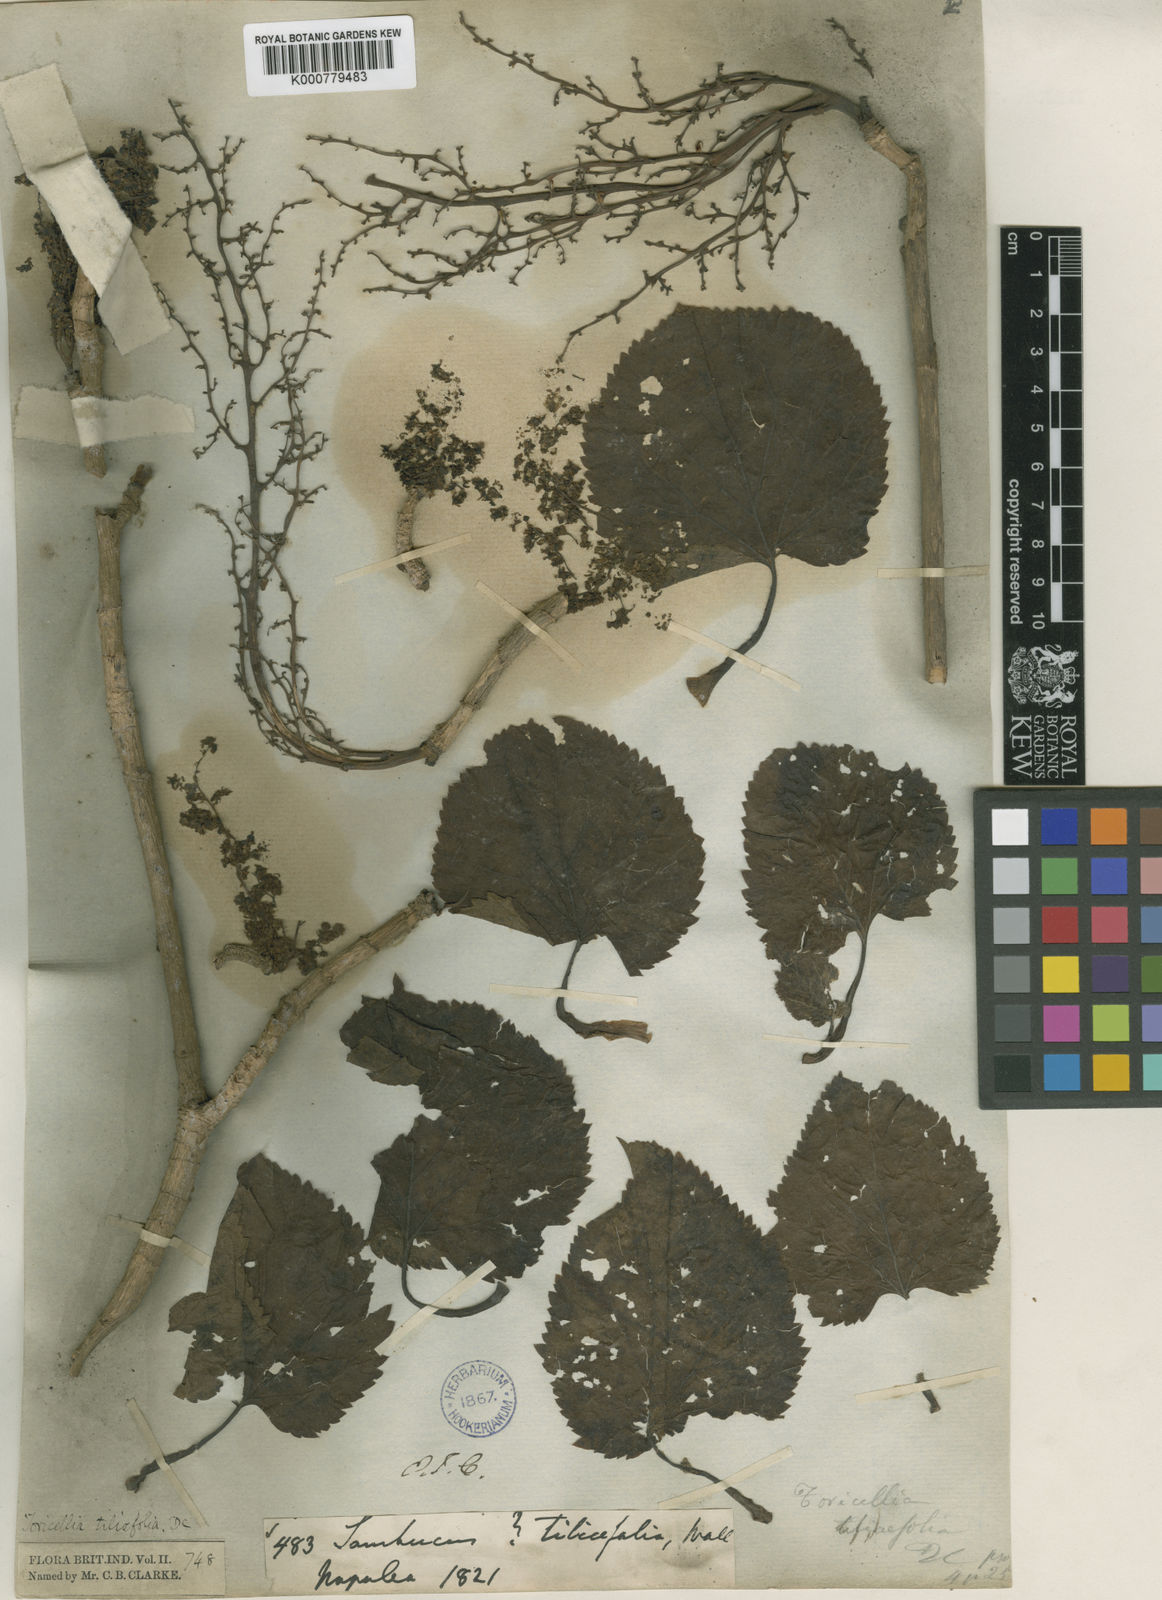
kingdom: Plantae
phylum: Tracheophyta
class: Magnoliopsida
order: Apiales
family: Torricelliaceae
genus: Torricellia
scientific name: Torricellia tiliifolia
